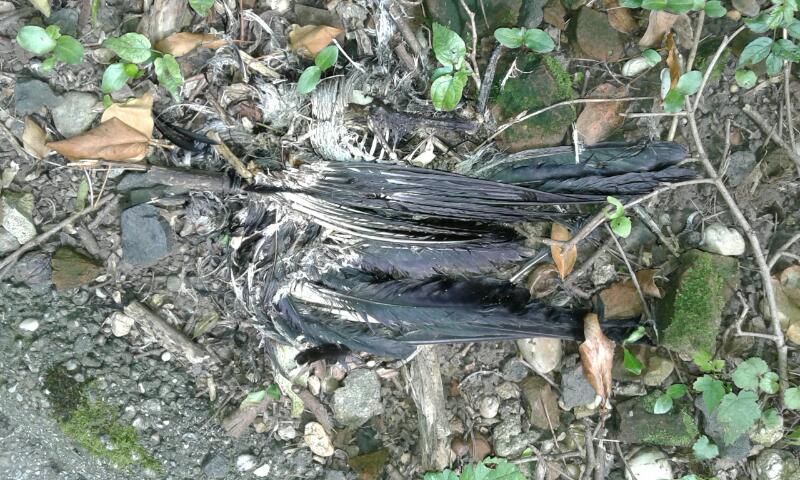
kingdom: Animalia
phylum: Chordata
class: Aves
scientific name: Aves
